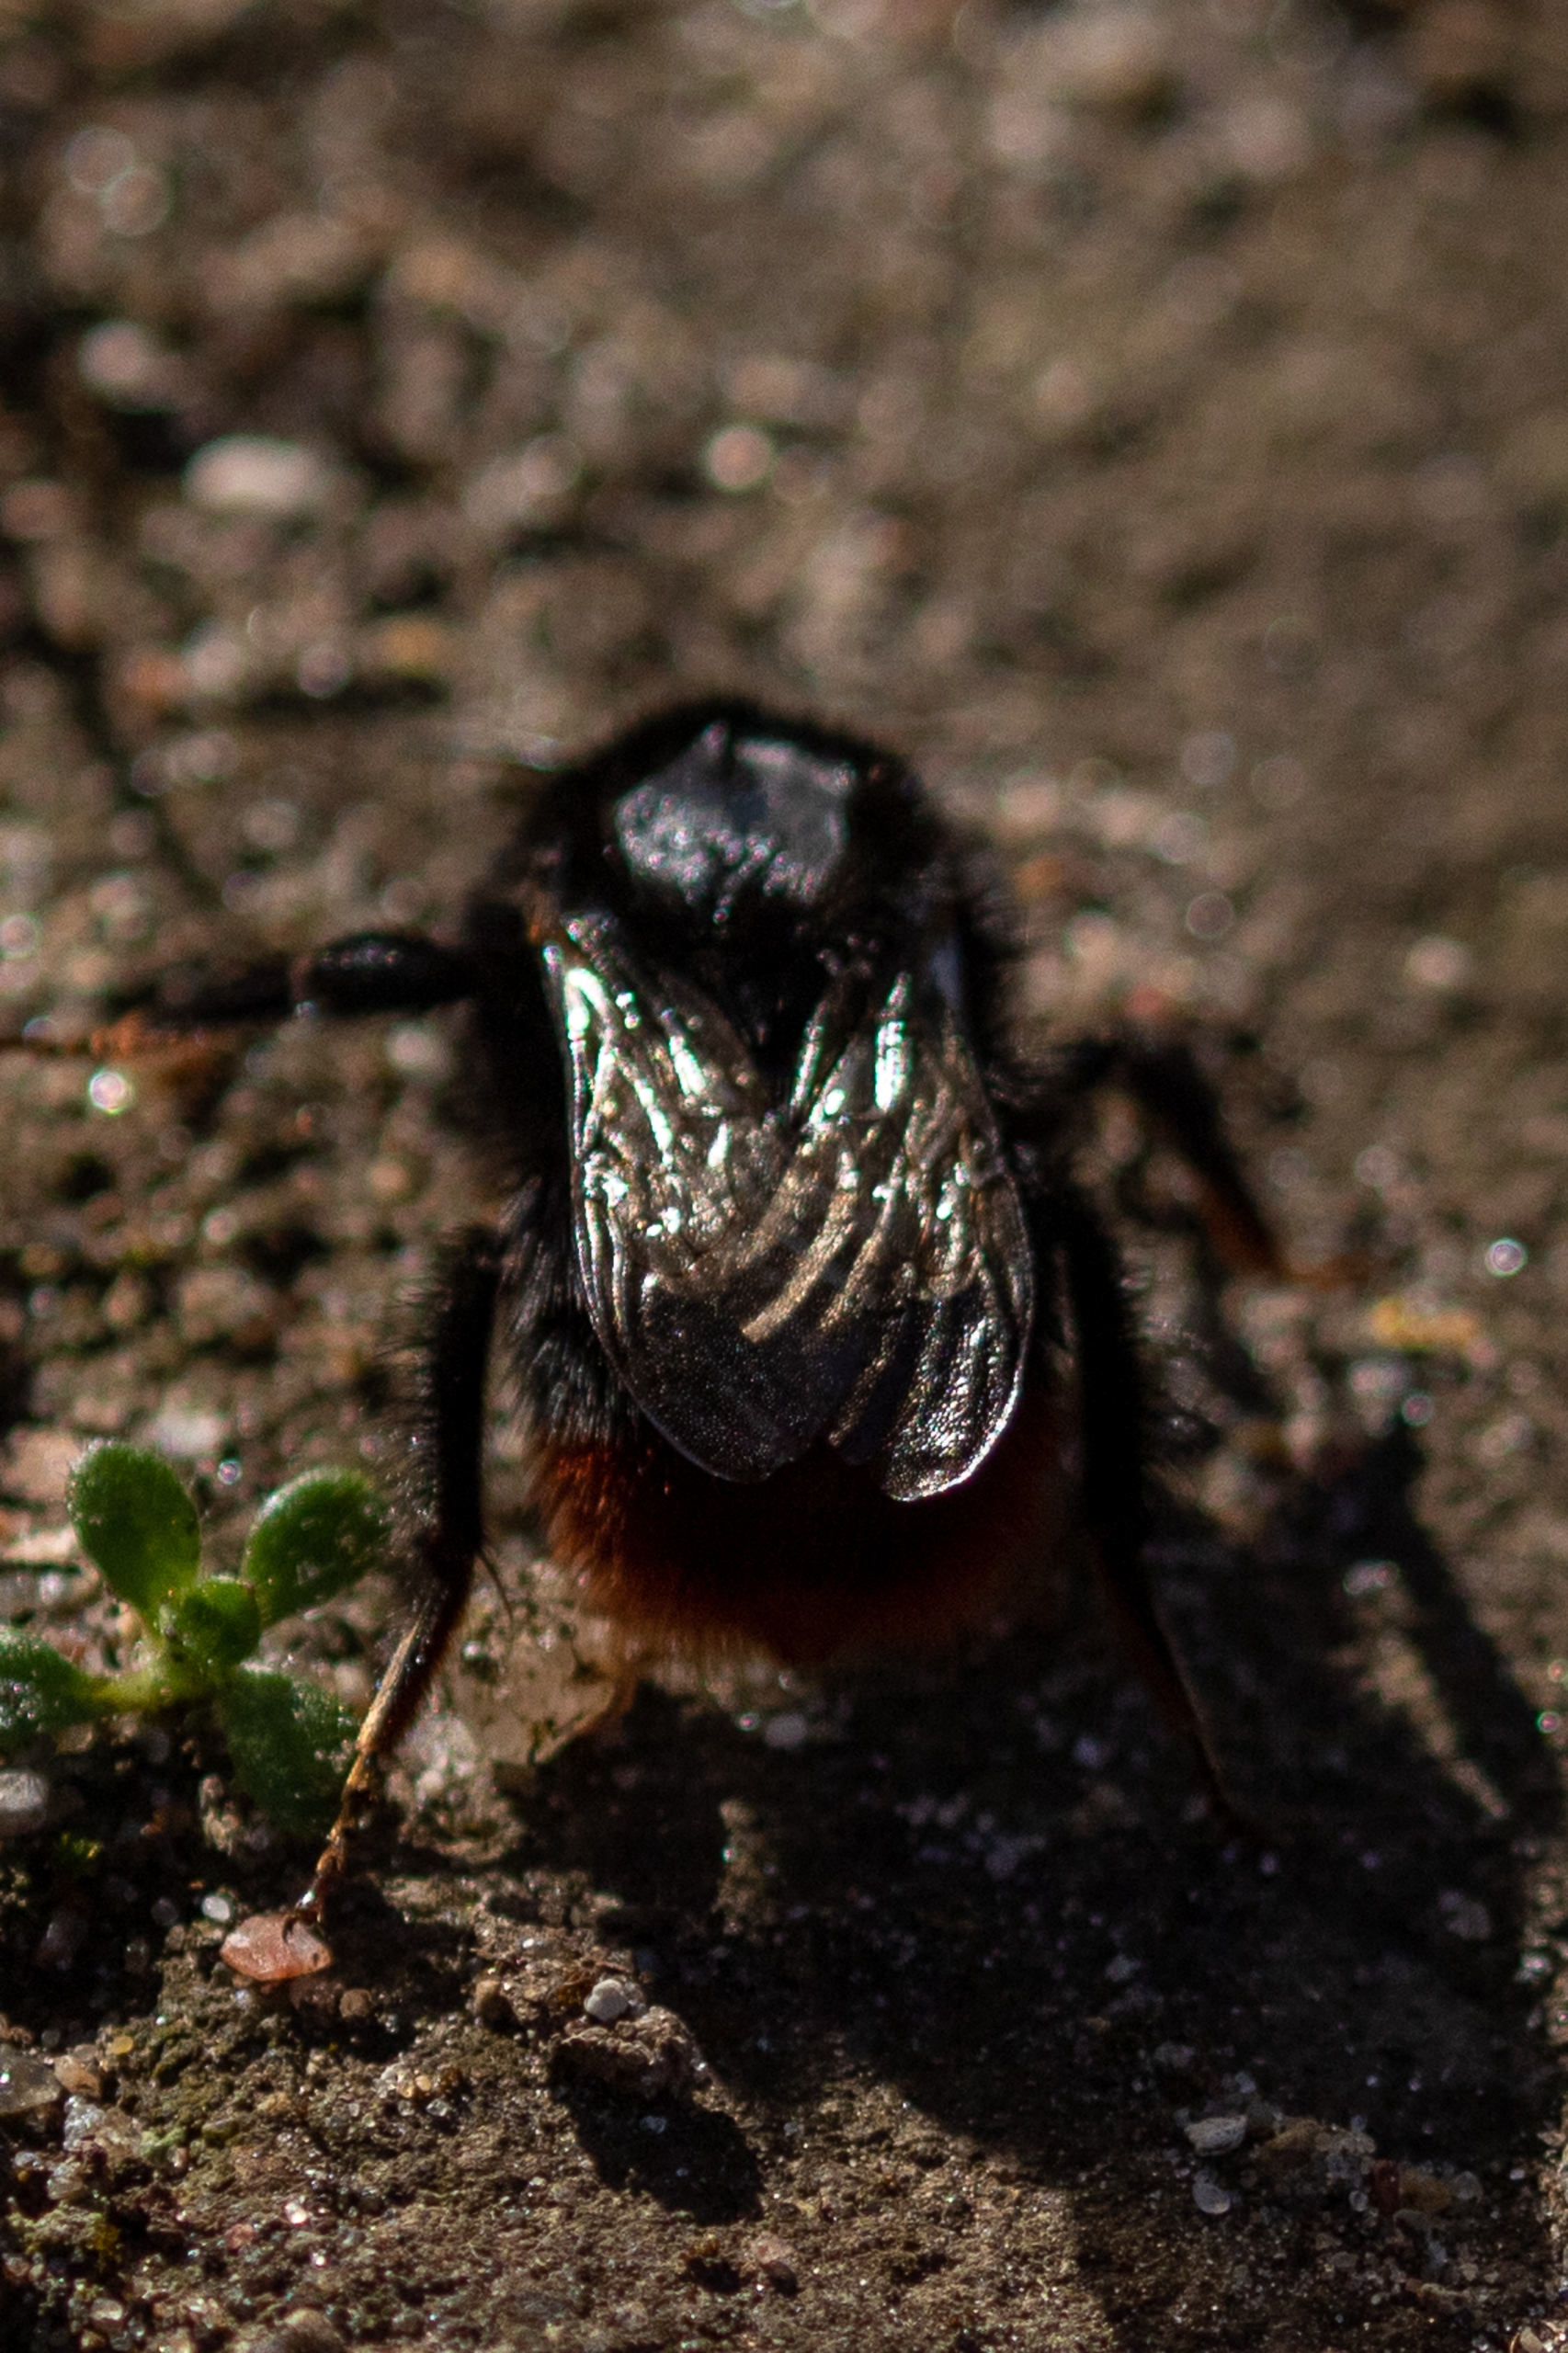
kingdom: Animalia
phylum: Arthropoda
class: Insecta
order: Hymenoptera
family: Apidae
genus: Bombus
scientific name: Bombus lapidarius
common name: Stenhumle
